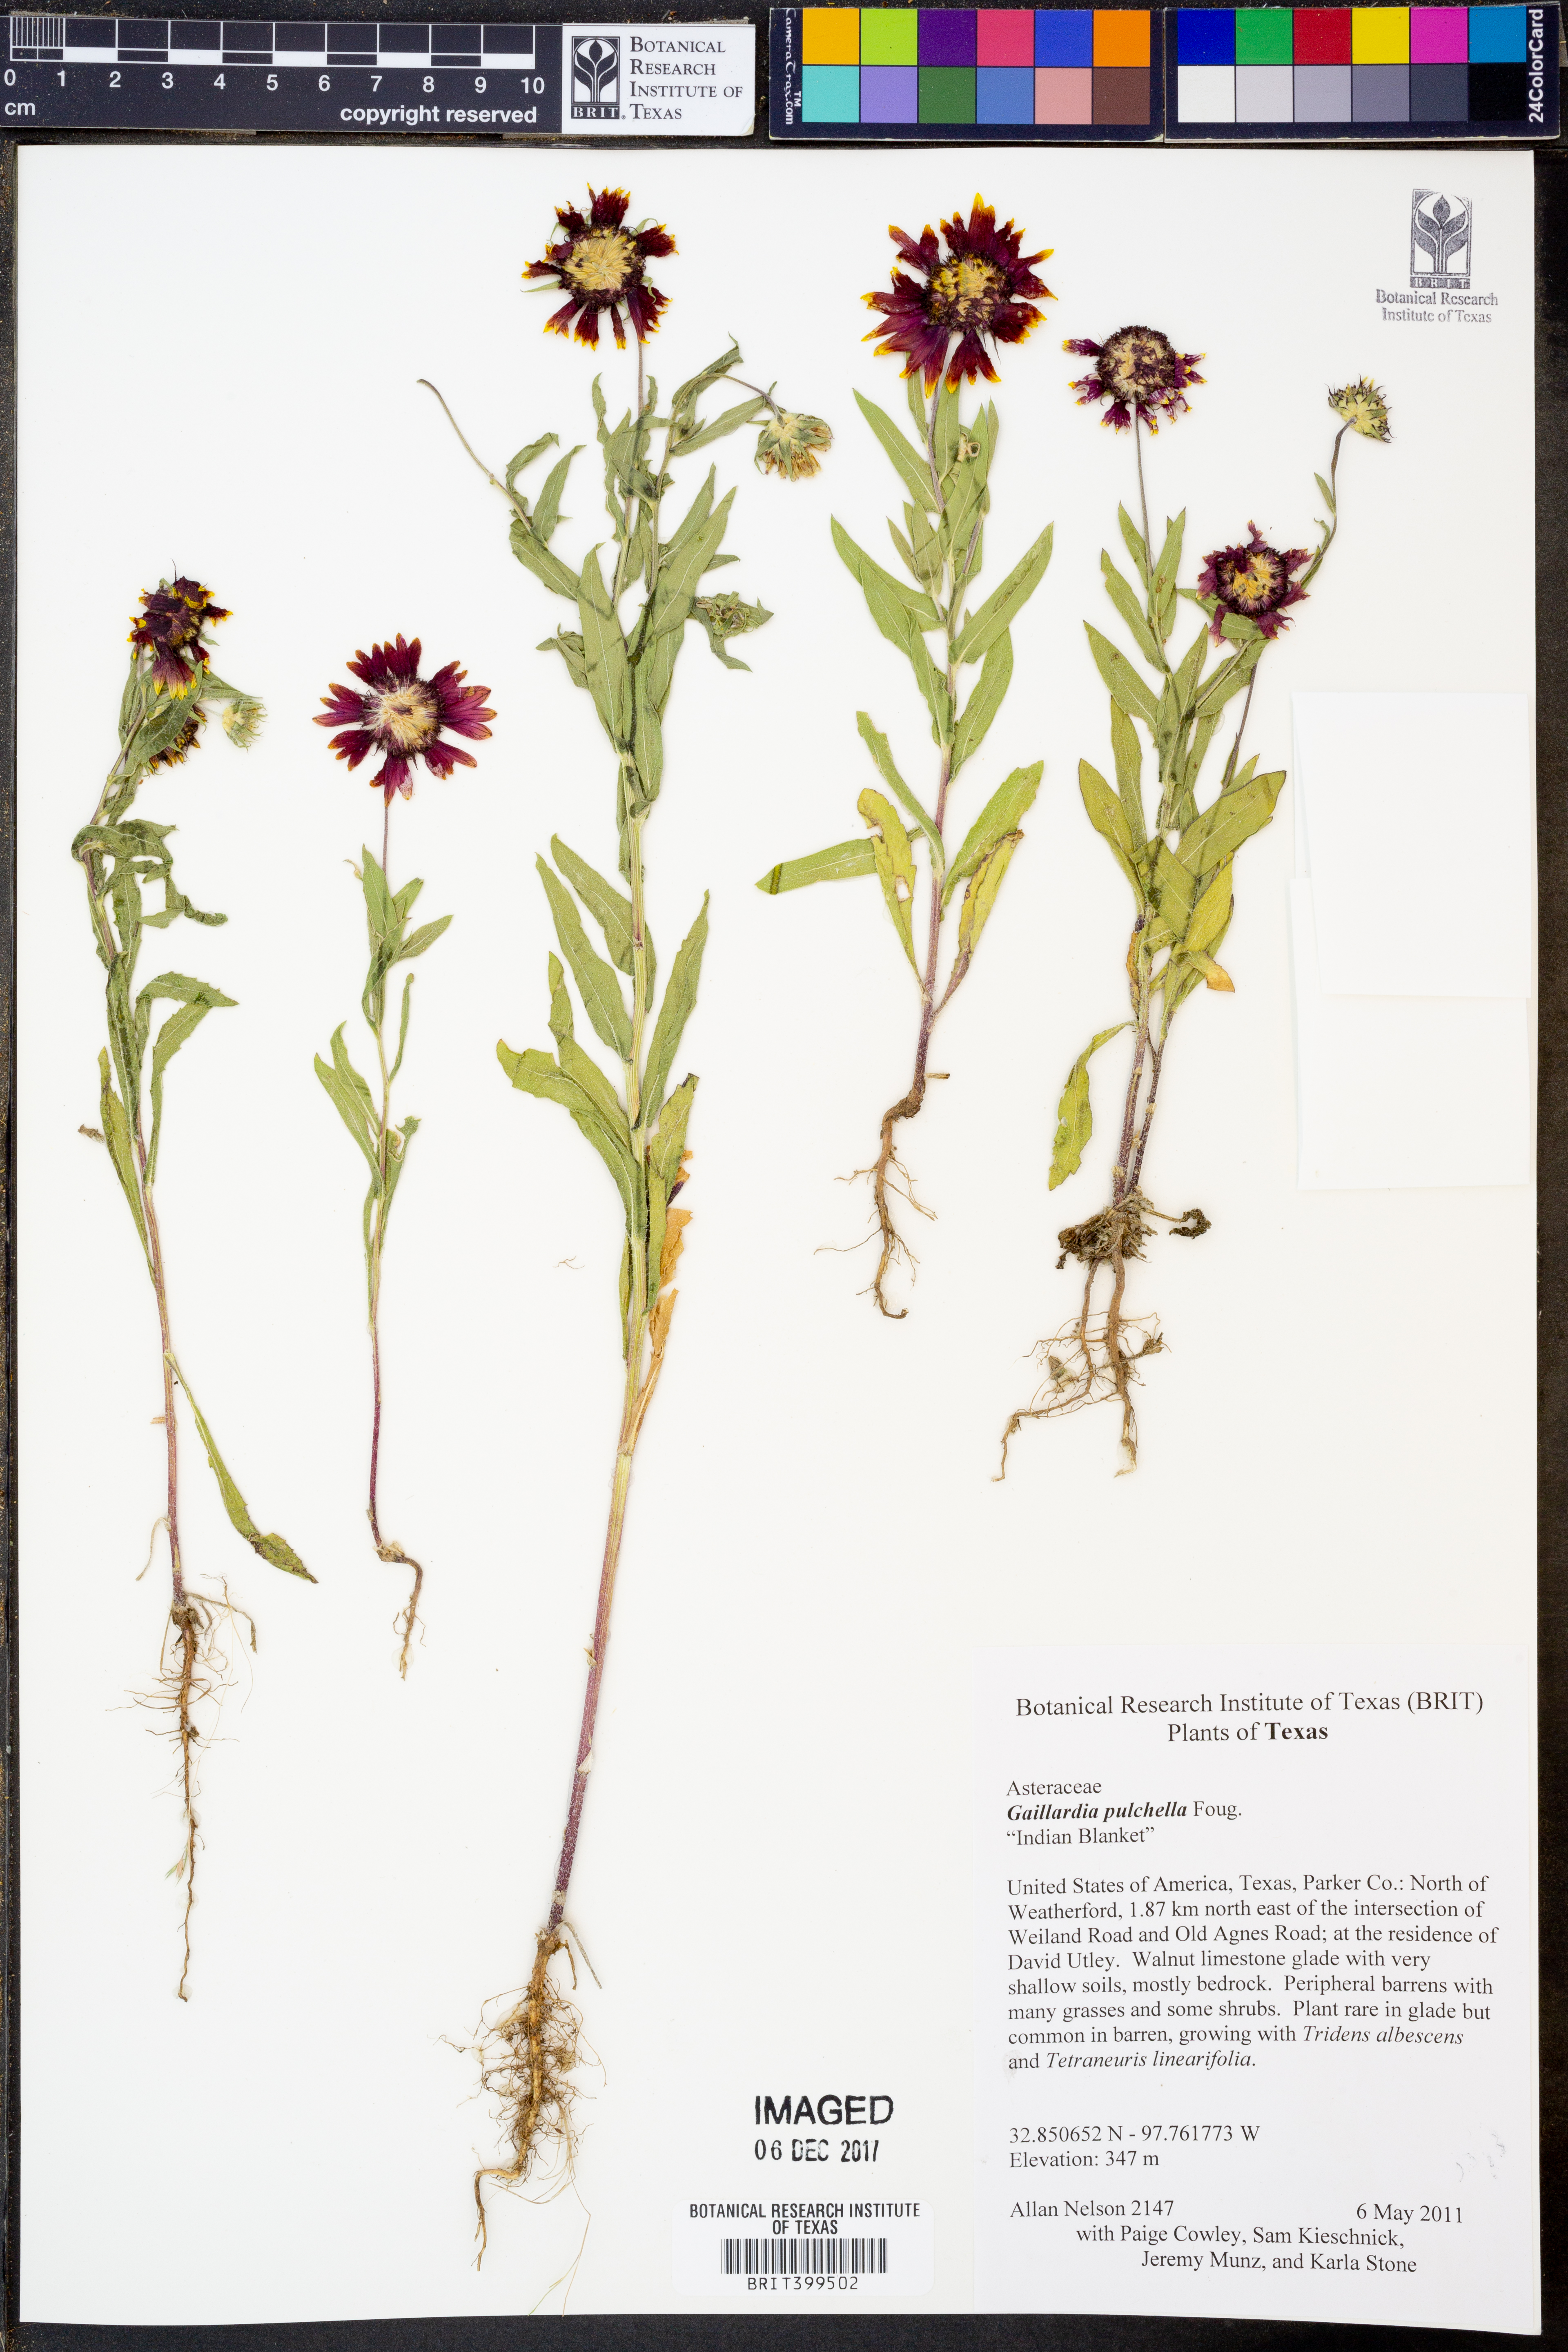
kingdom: Plantae
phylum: Tracheophyta
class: Magnoliopsida
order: Asterales
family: Asteraceae
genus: Gaillardia
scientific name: Gaillardia pulchella
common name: Firewheel
